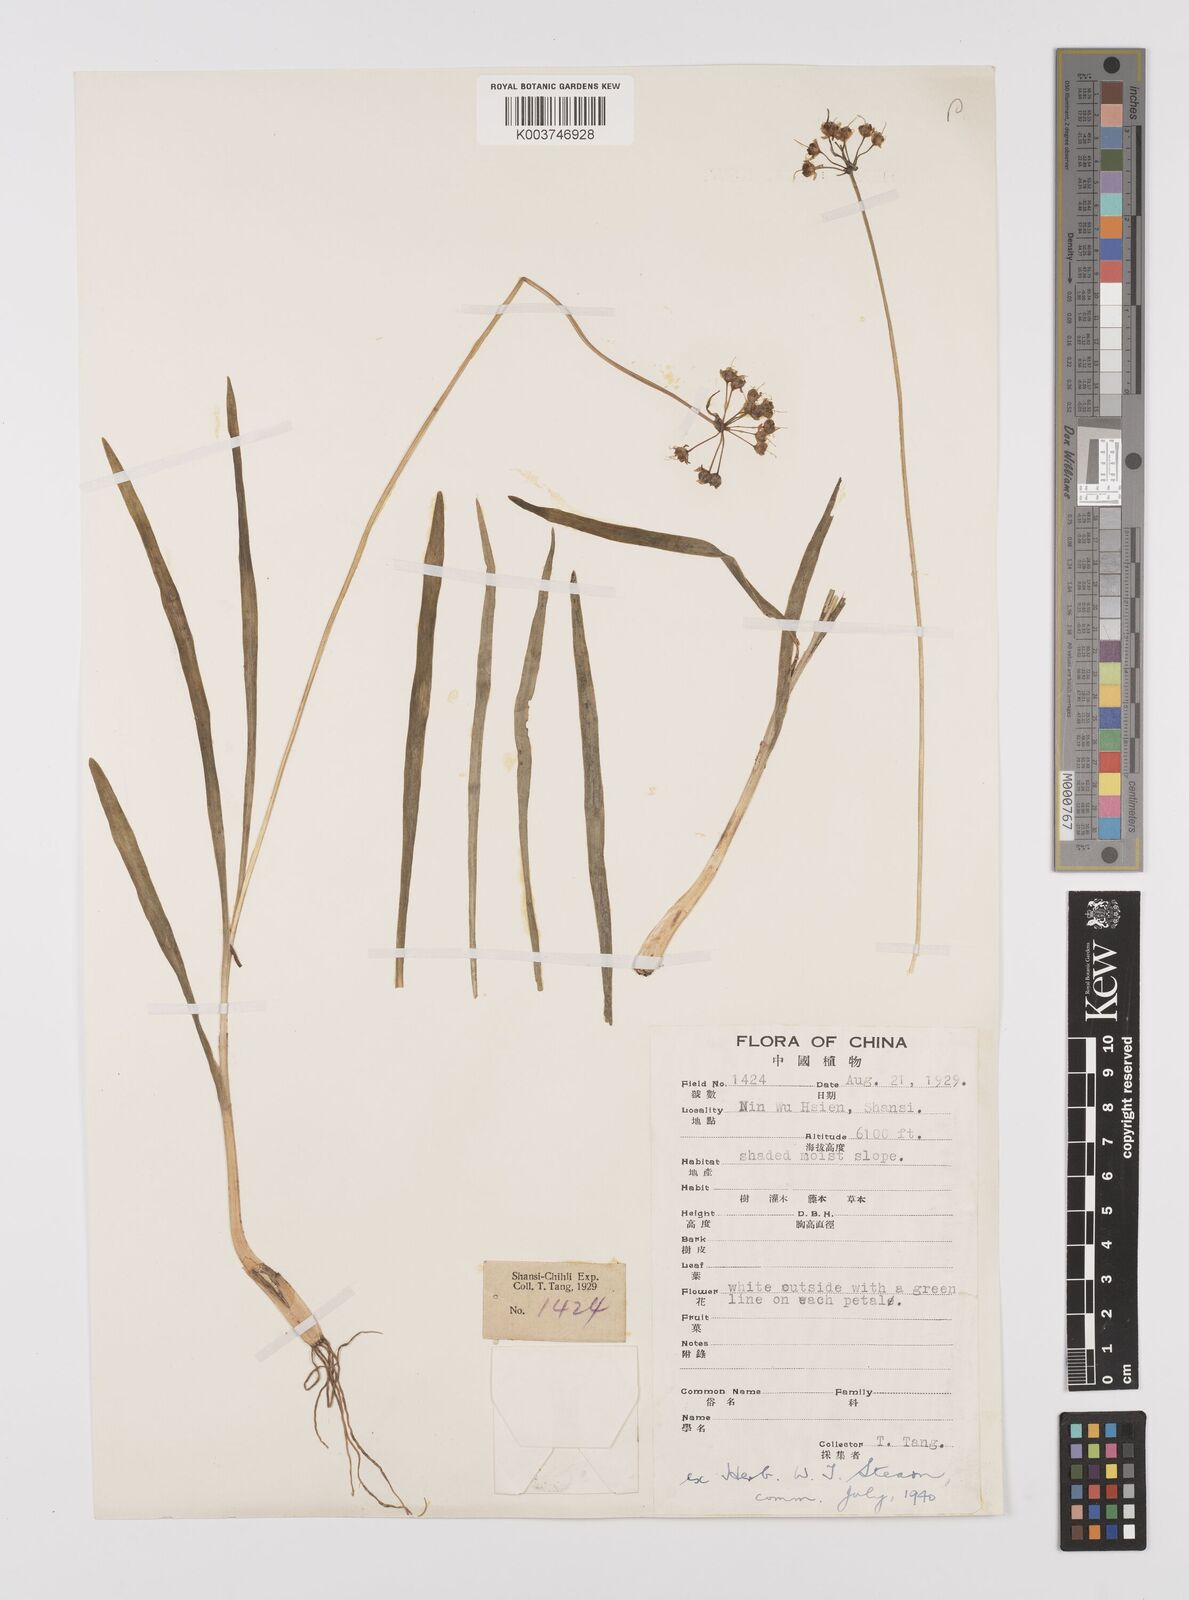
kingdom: Plantae
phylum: Tracheophyta
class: Liliopsida
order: Asparagales
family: Amaryllidaceae
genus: Allium
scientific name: Allium
